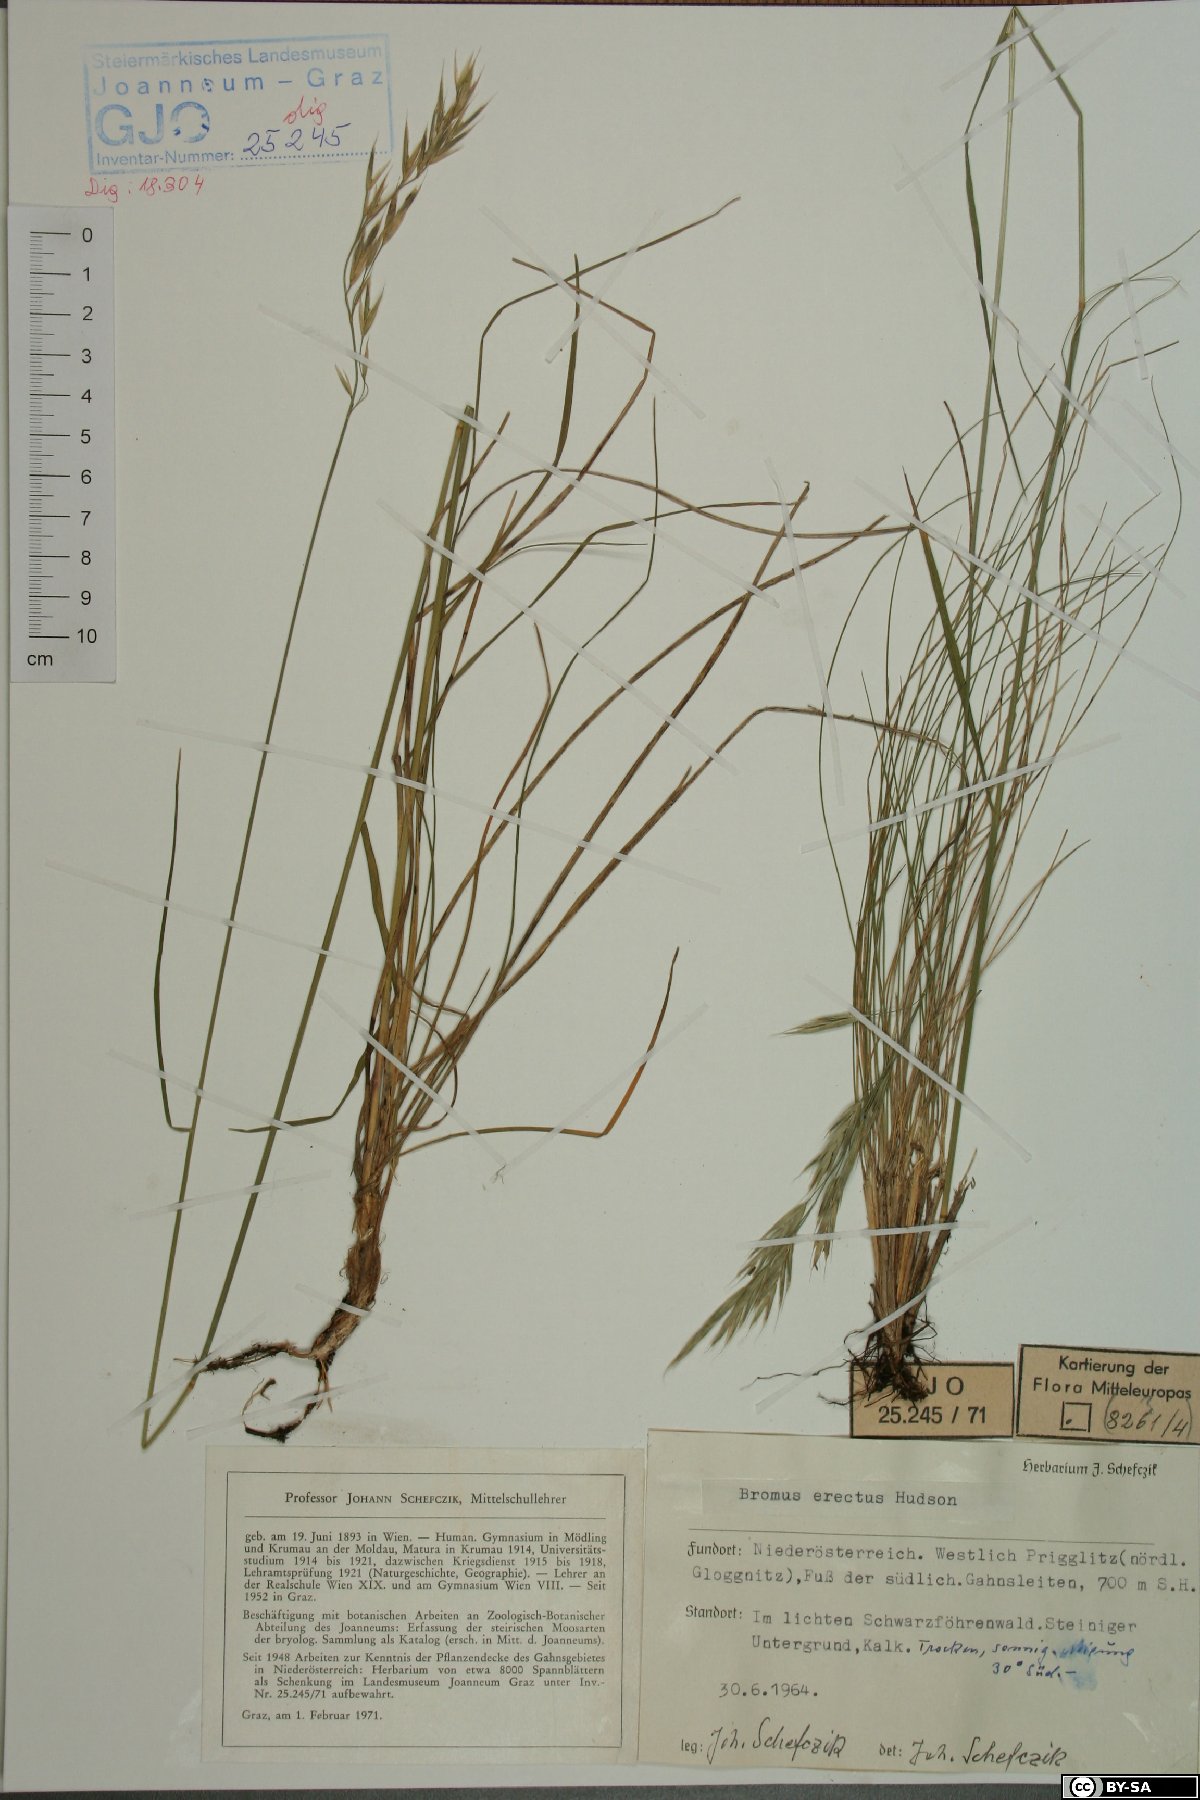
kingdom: Plantae
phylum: Tracheophyta
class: Liliopsida
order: Poales
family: Poaceae
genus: Bromus
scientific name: Bromus erectus
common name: Erect brome
